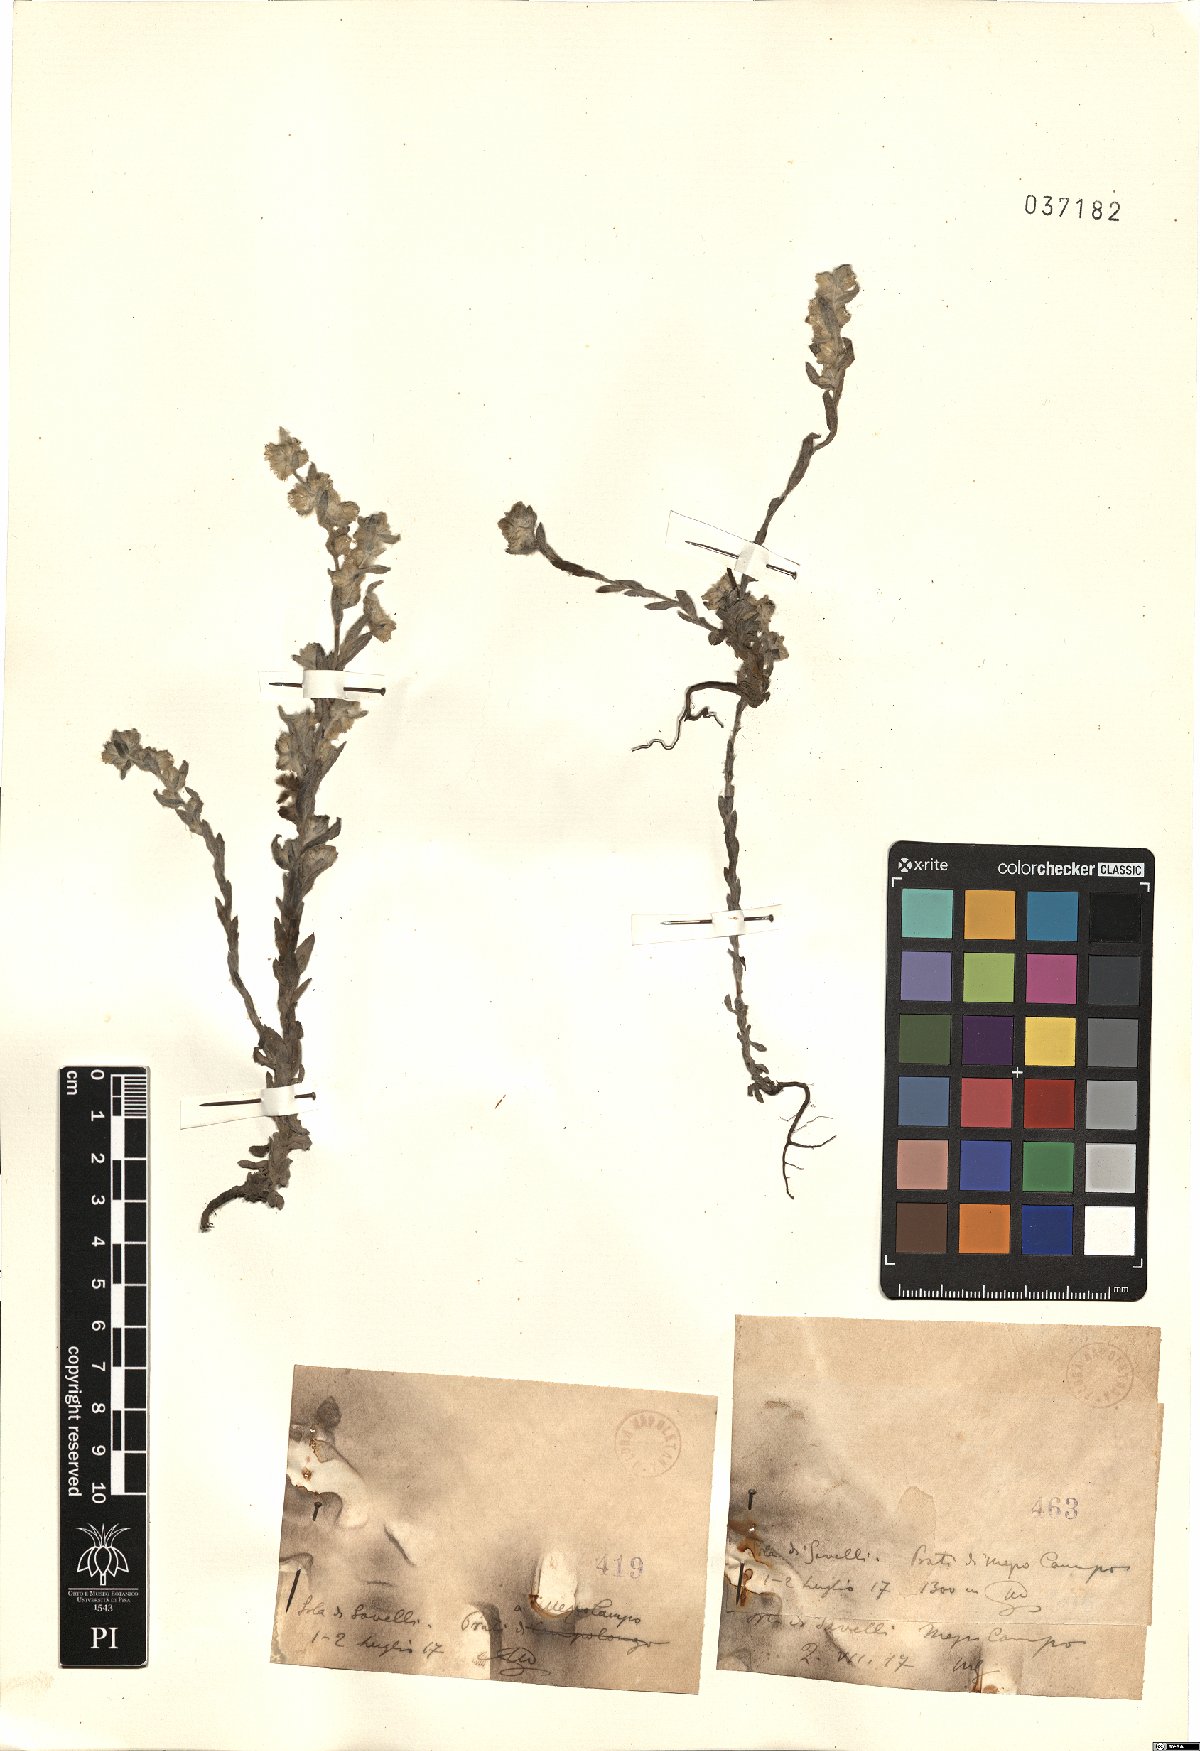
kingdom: Plantae
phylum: Tracheophyta
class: Magnoliopsida
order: Asterales
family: Asteraceae
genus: Filago
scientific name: Filago
